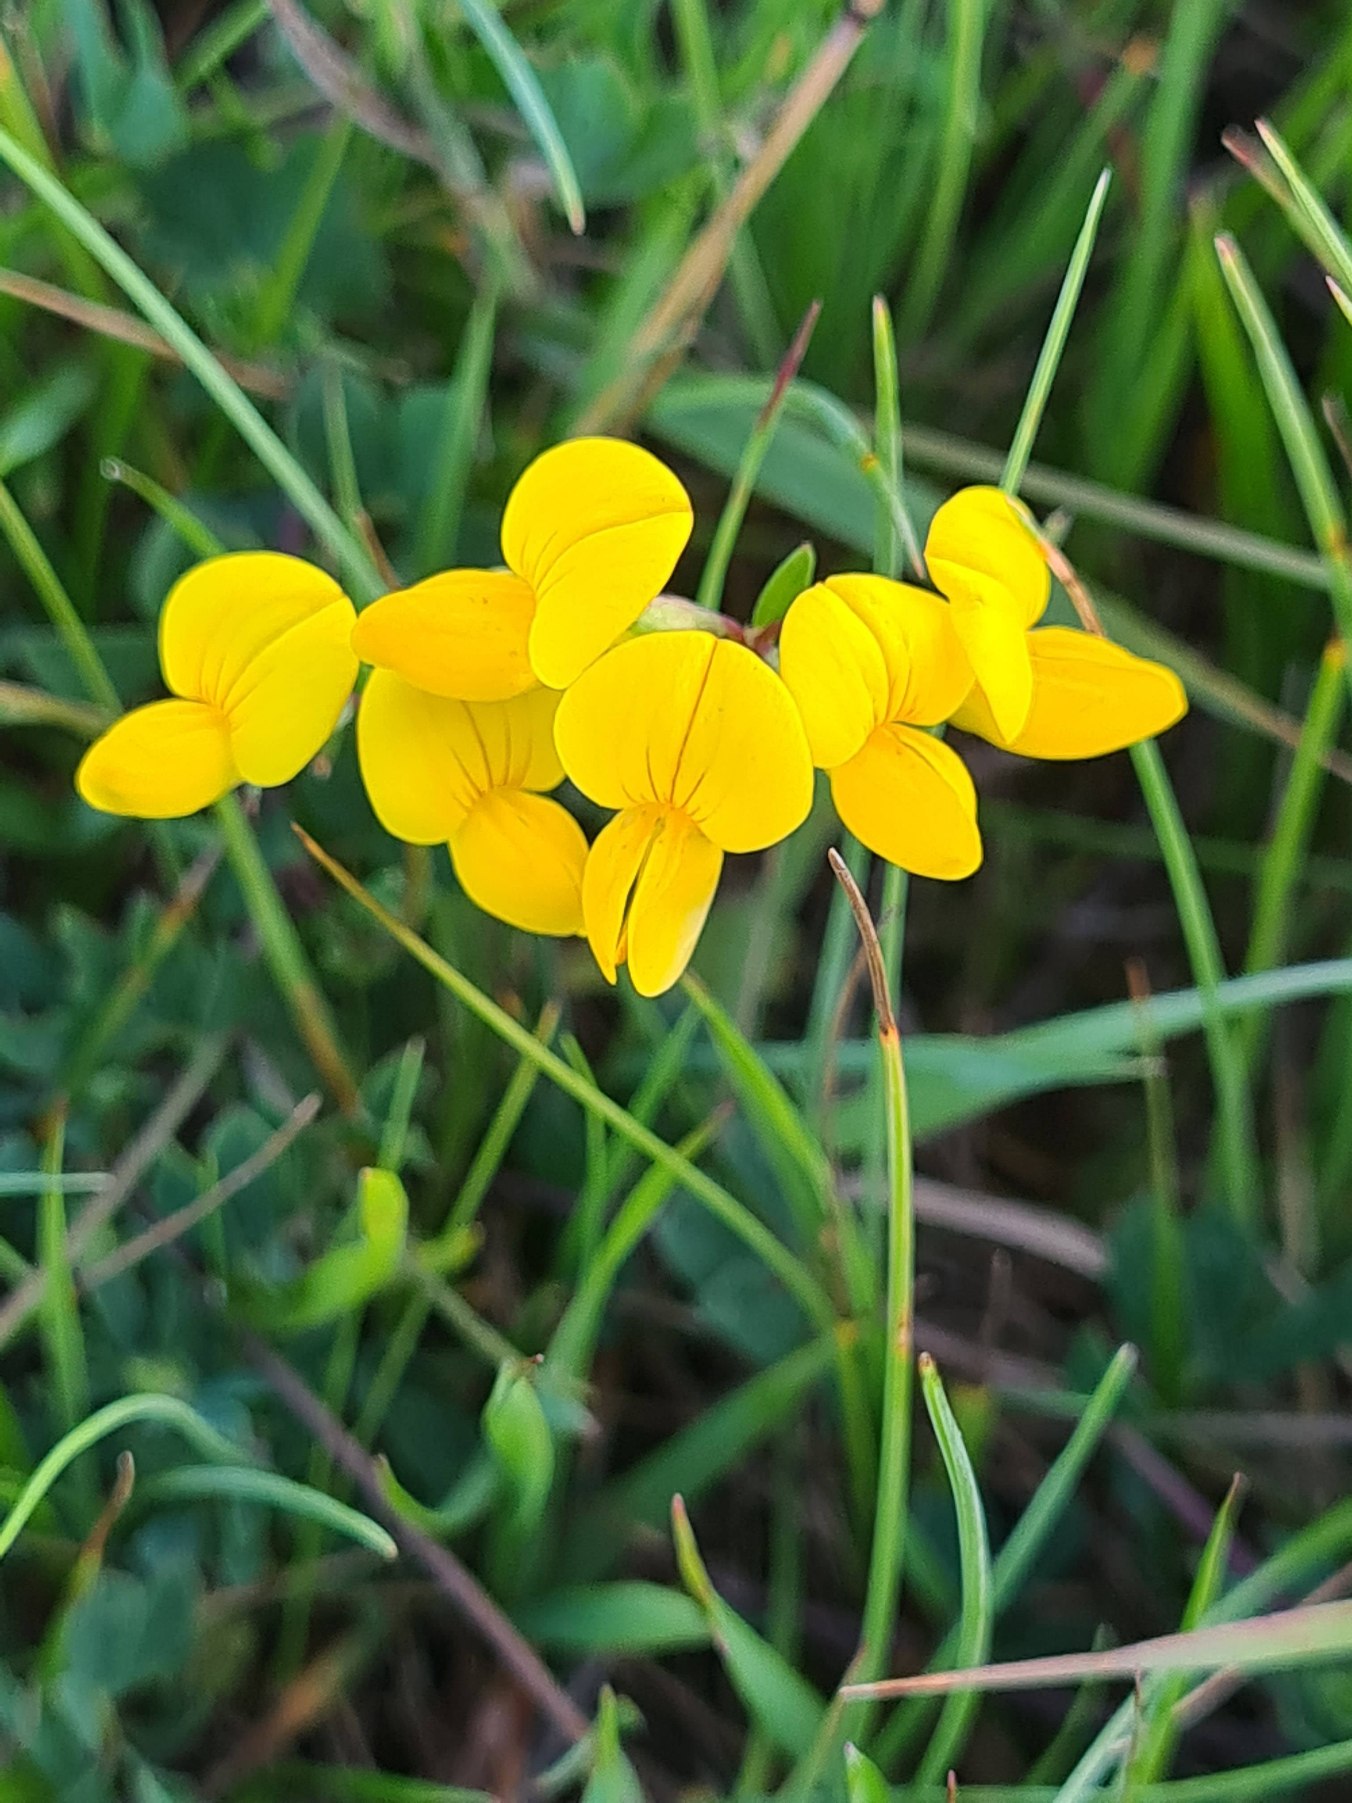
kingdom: Plantae
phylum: Tracheophyta
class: Magnoliopsida
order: Fabales
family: Fabaceae
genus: Lotus
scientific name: Lotus corniculatus
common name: Almindelig kællingetand
